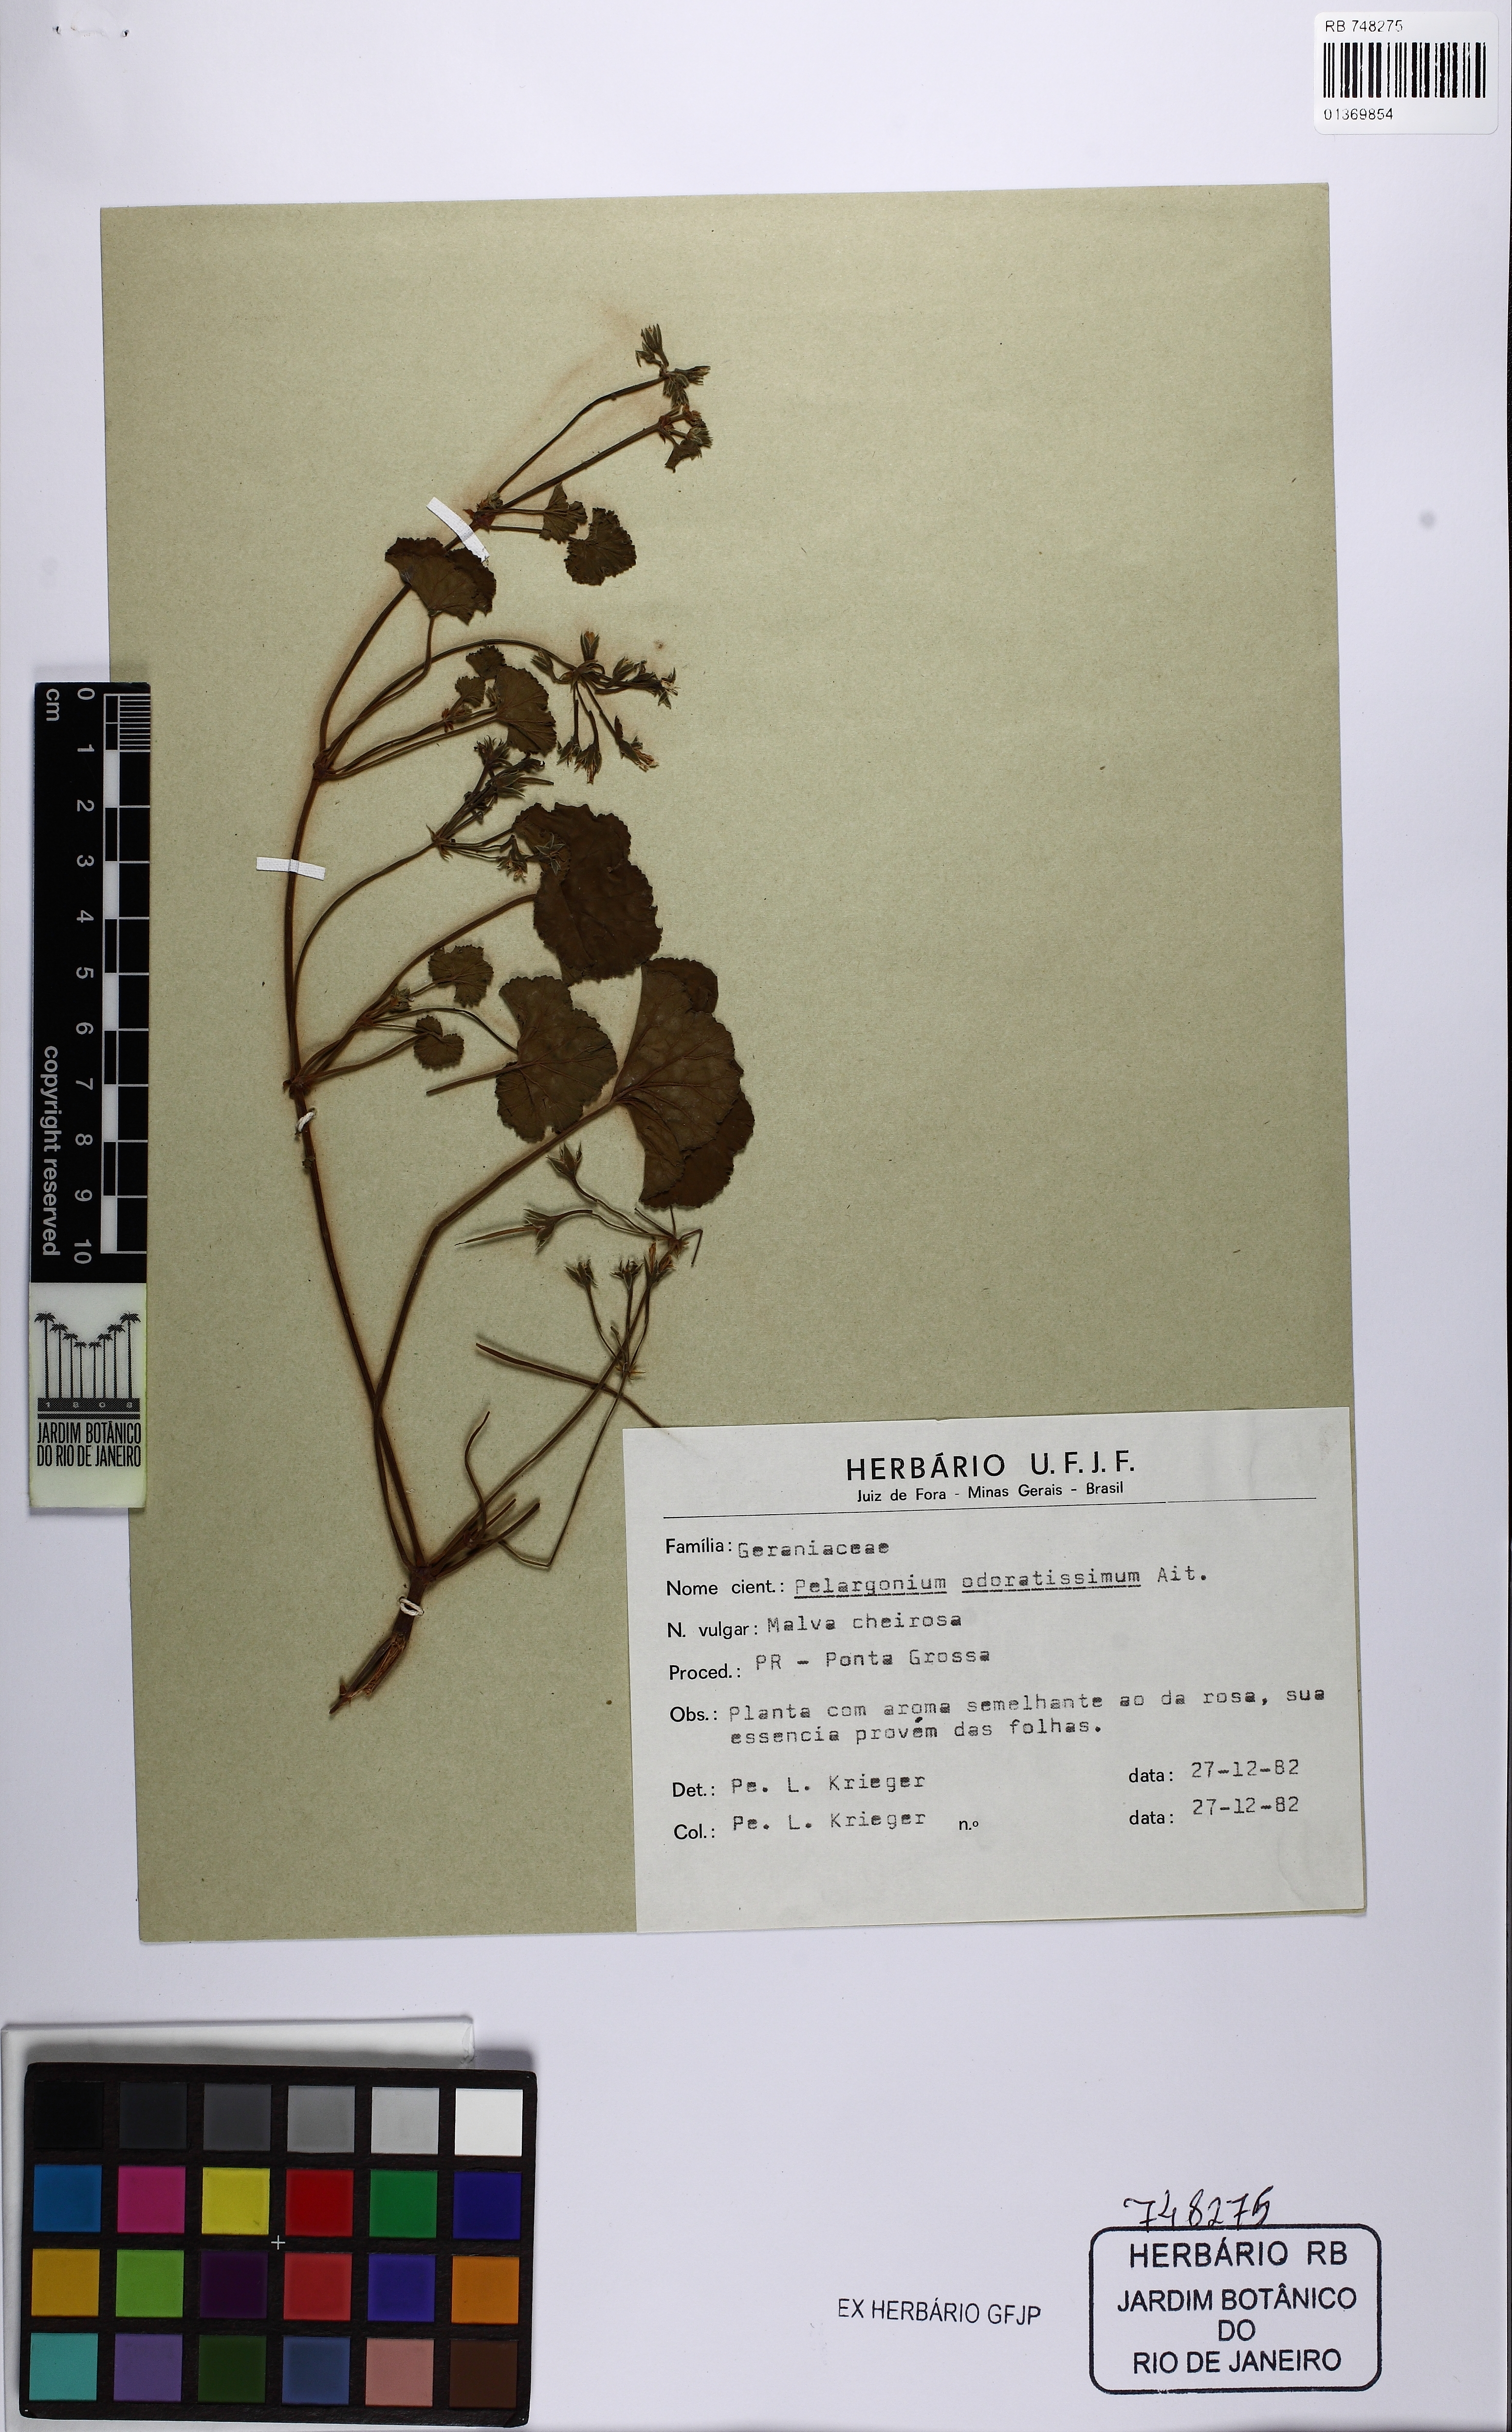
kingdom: Plantae
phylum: Tracheophyta
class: Magnoliopsida
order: Geraniales
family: Geraniaceae
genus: Pelargonium
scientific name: Pelargonium odoratissimum
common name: Apple geranium
